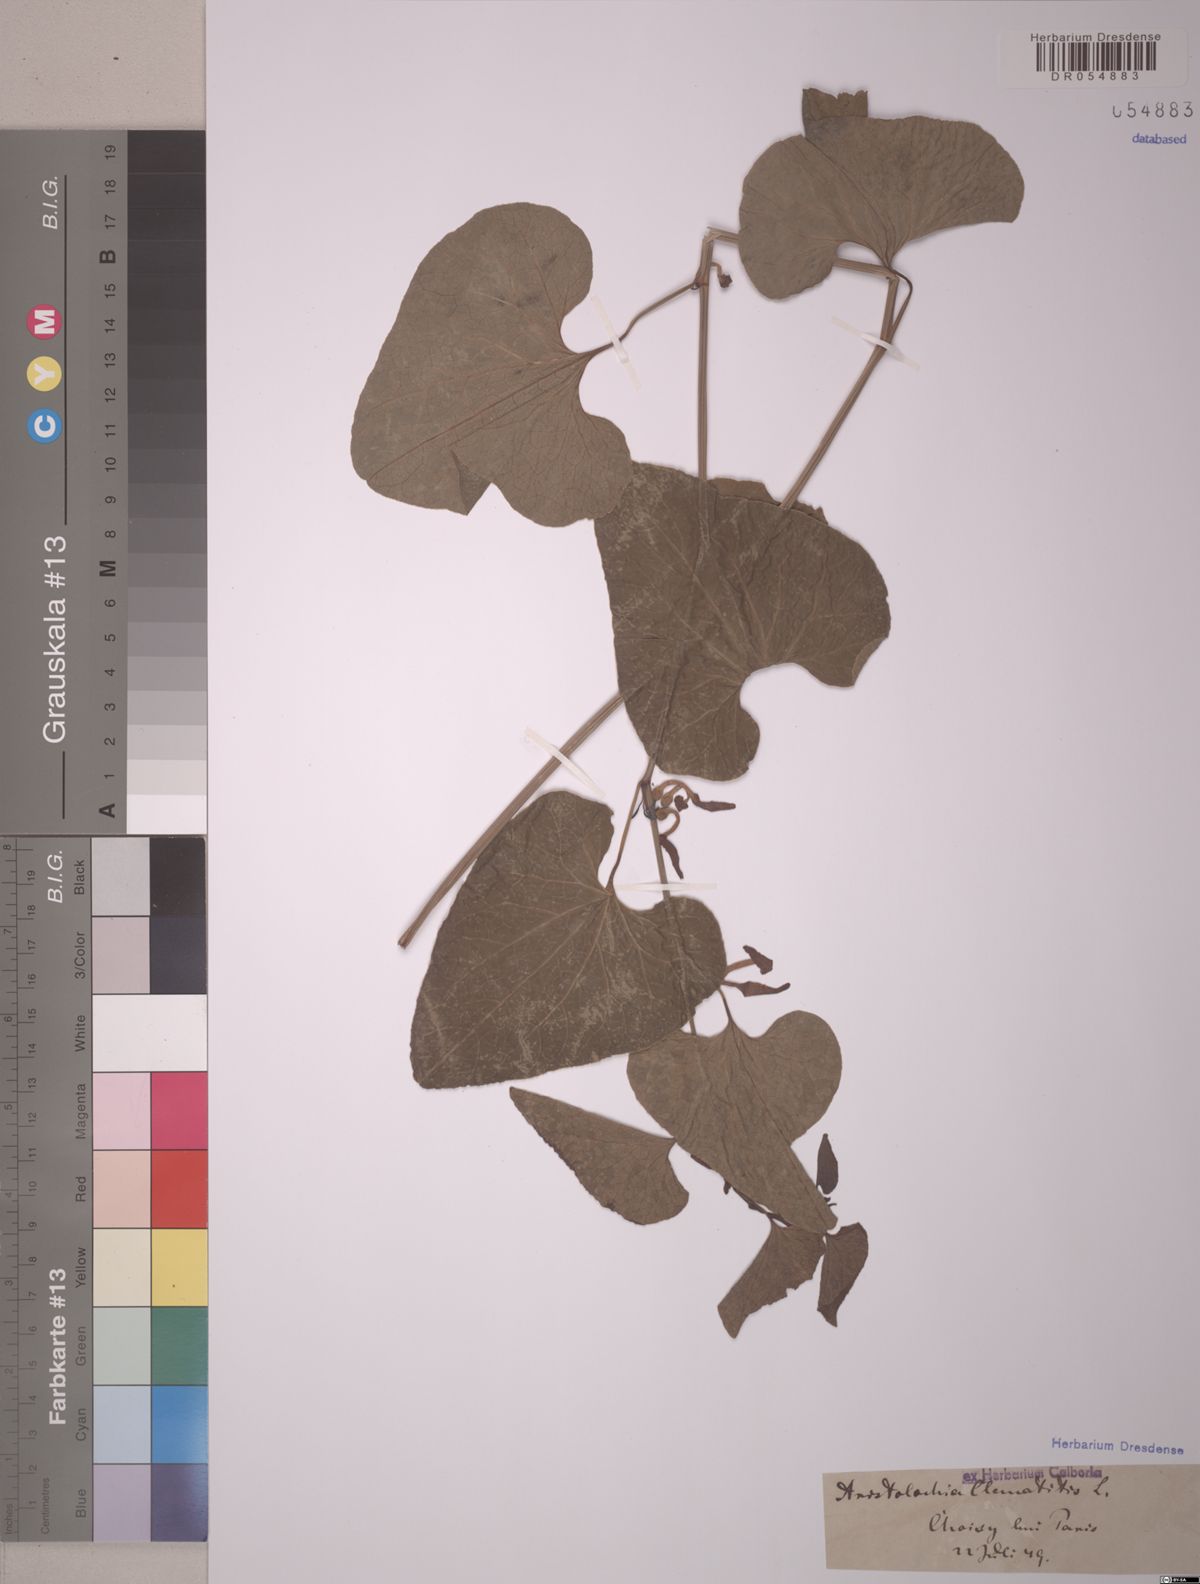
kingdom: Plantae
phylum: Tracheophyta
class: Magnoliopsida
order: Piperales
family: Aristolochiaceae
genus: Aristolochia
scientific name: Aristolochia clematitis
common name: Birthwort
